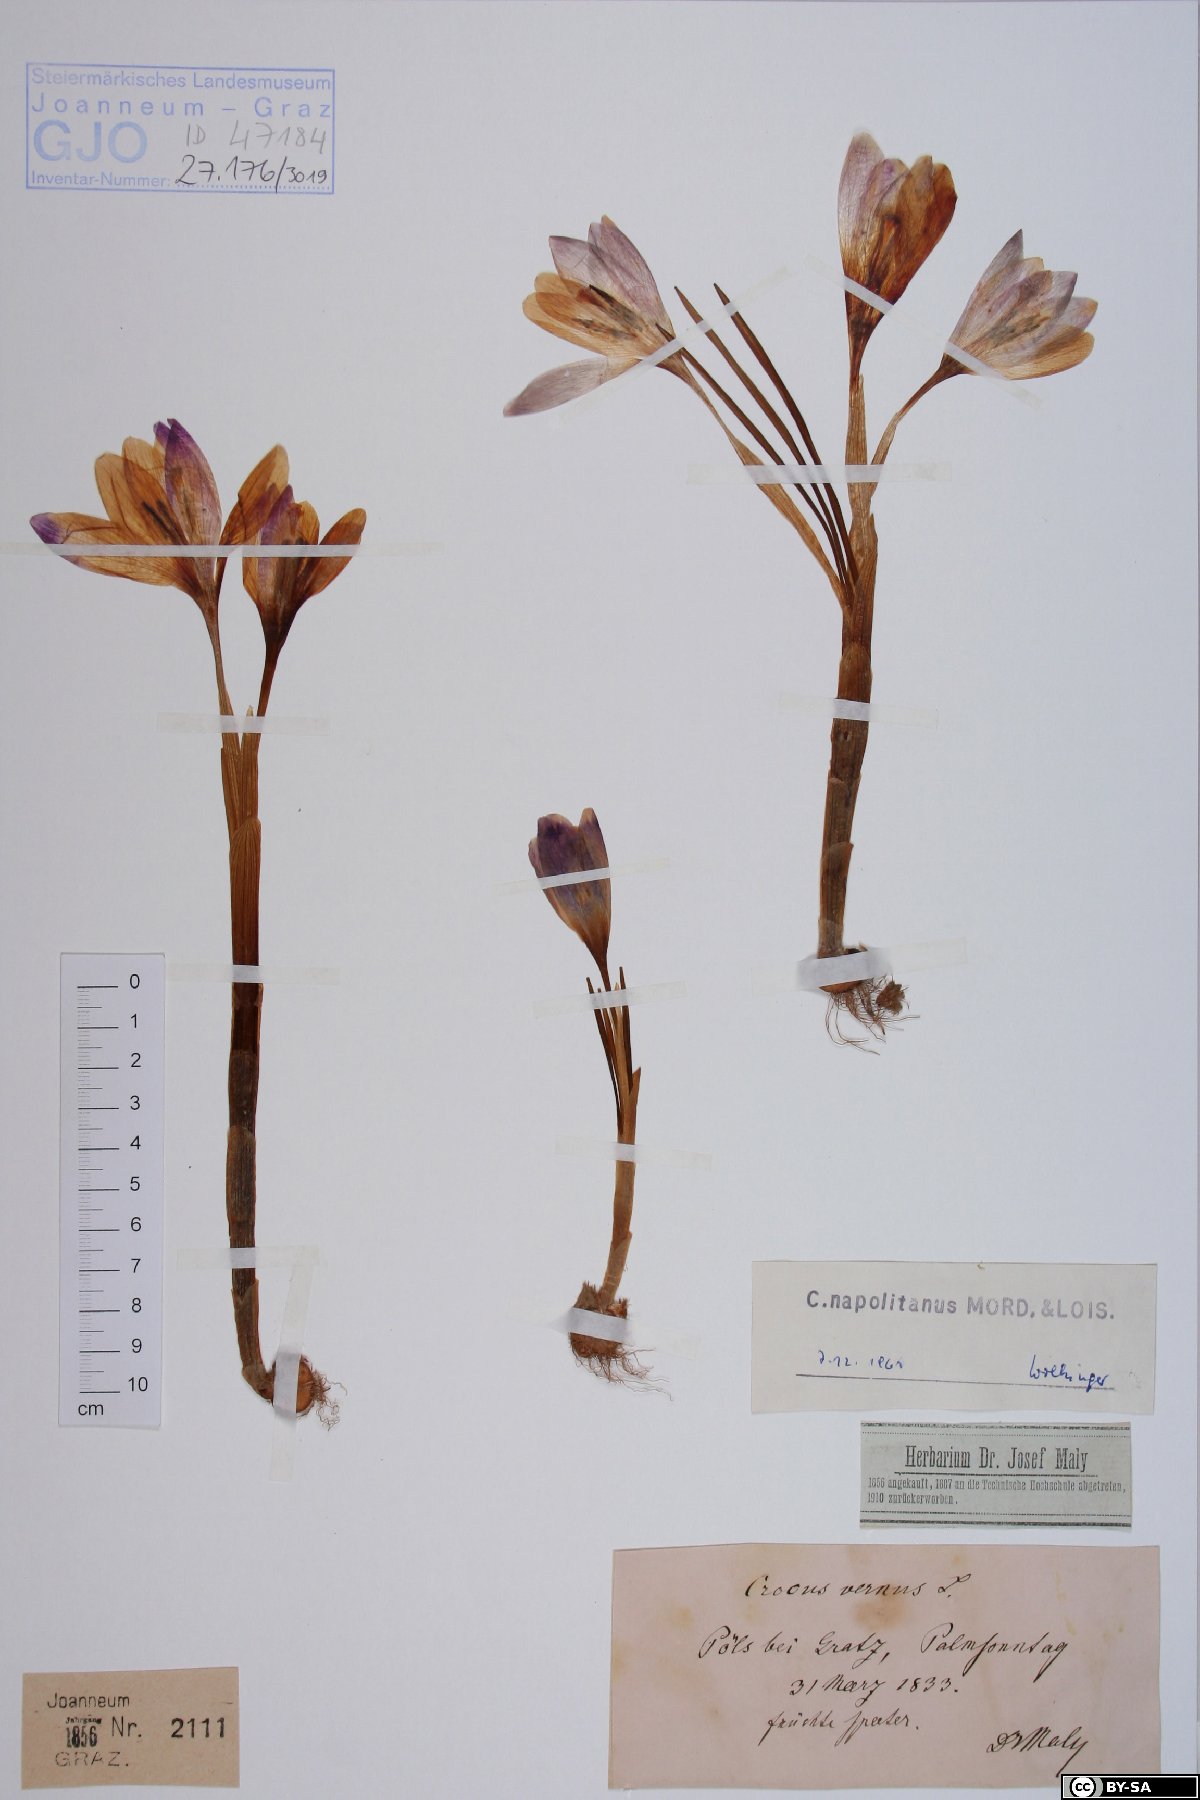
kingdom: Plantae
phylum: Tracheophyta
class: Liliopsida
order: Asparagales
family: Iridaceae
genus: Crocus
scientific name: Crocus vernus
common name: Spring crocus
